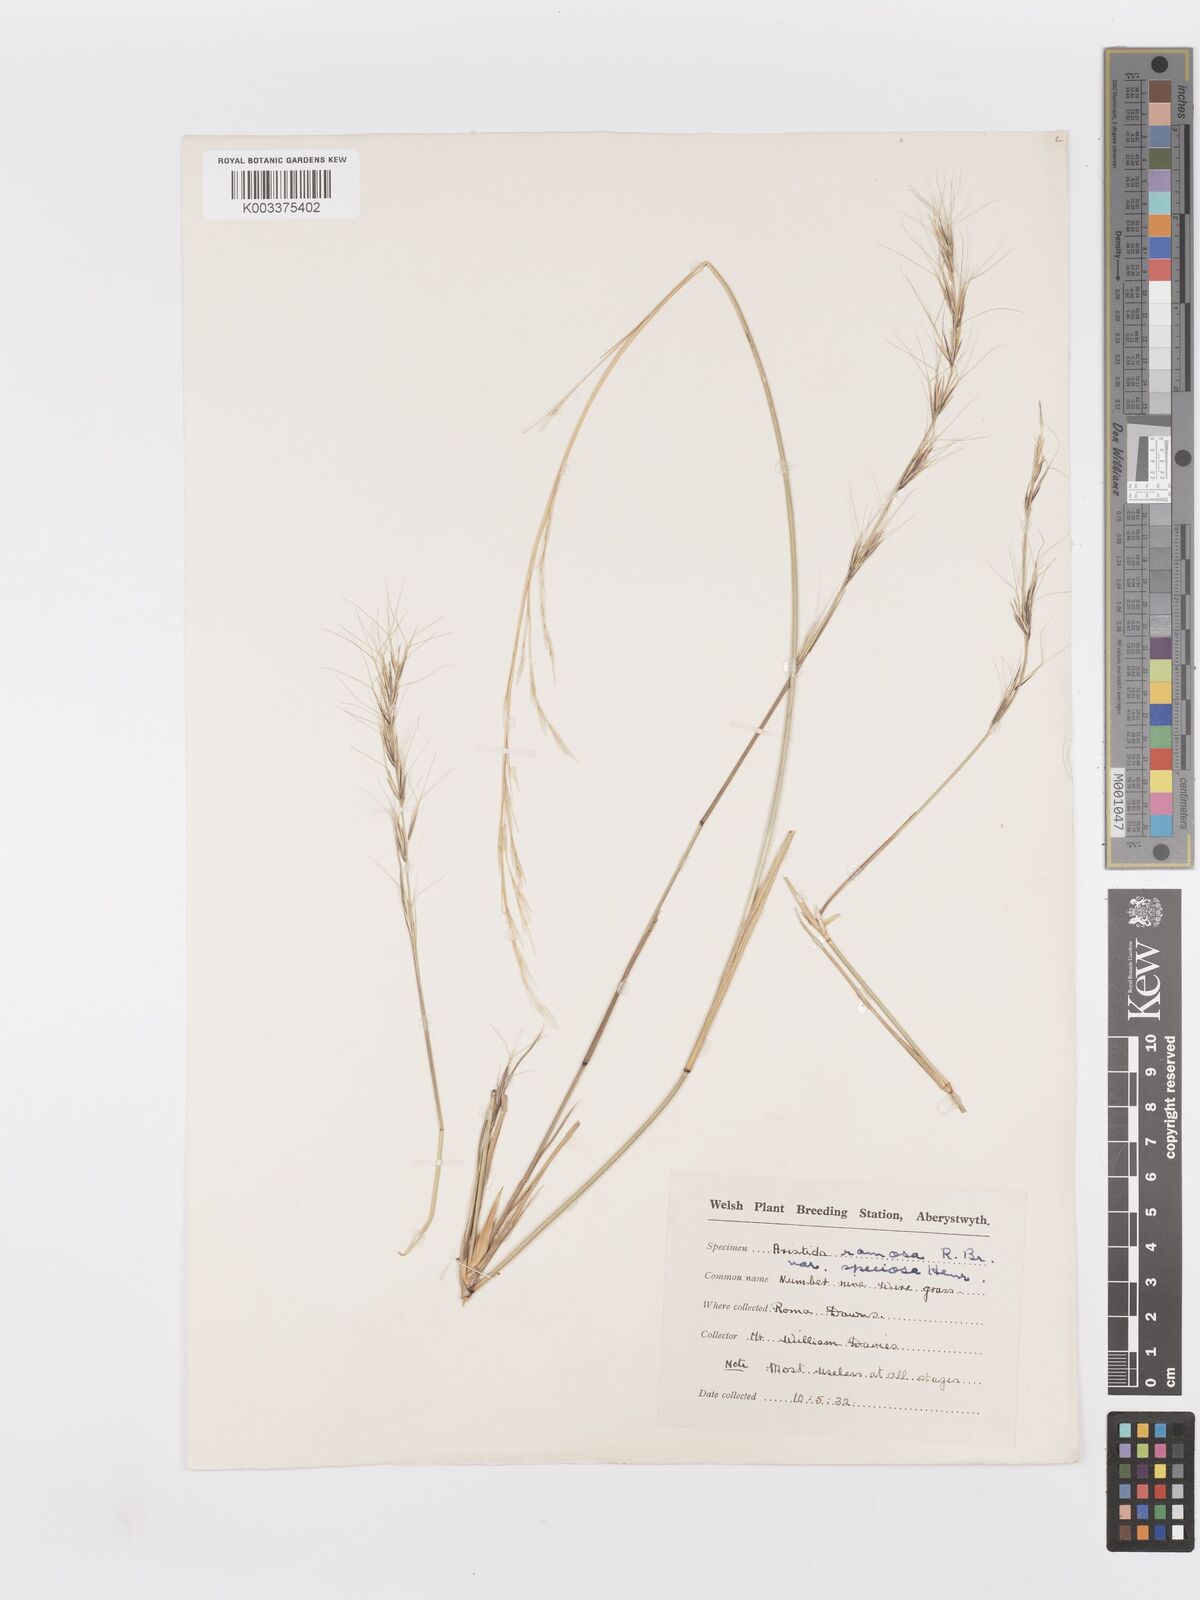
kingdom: Plantae
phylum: Tracheophyta
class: Liliopsida
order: Poales
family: Poaceae
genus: Aristida
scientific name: Aristida ramosa
